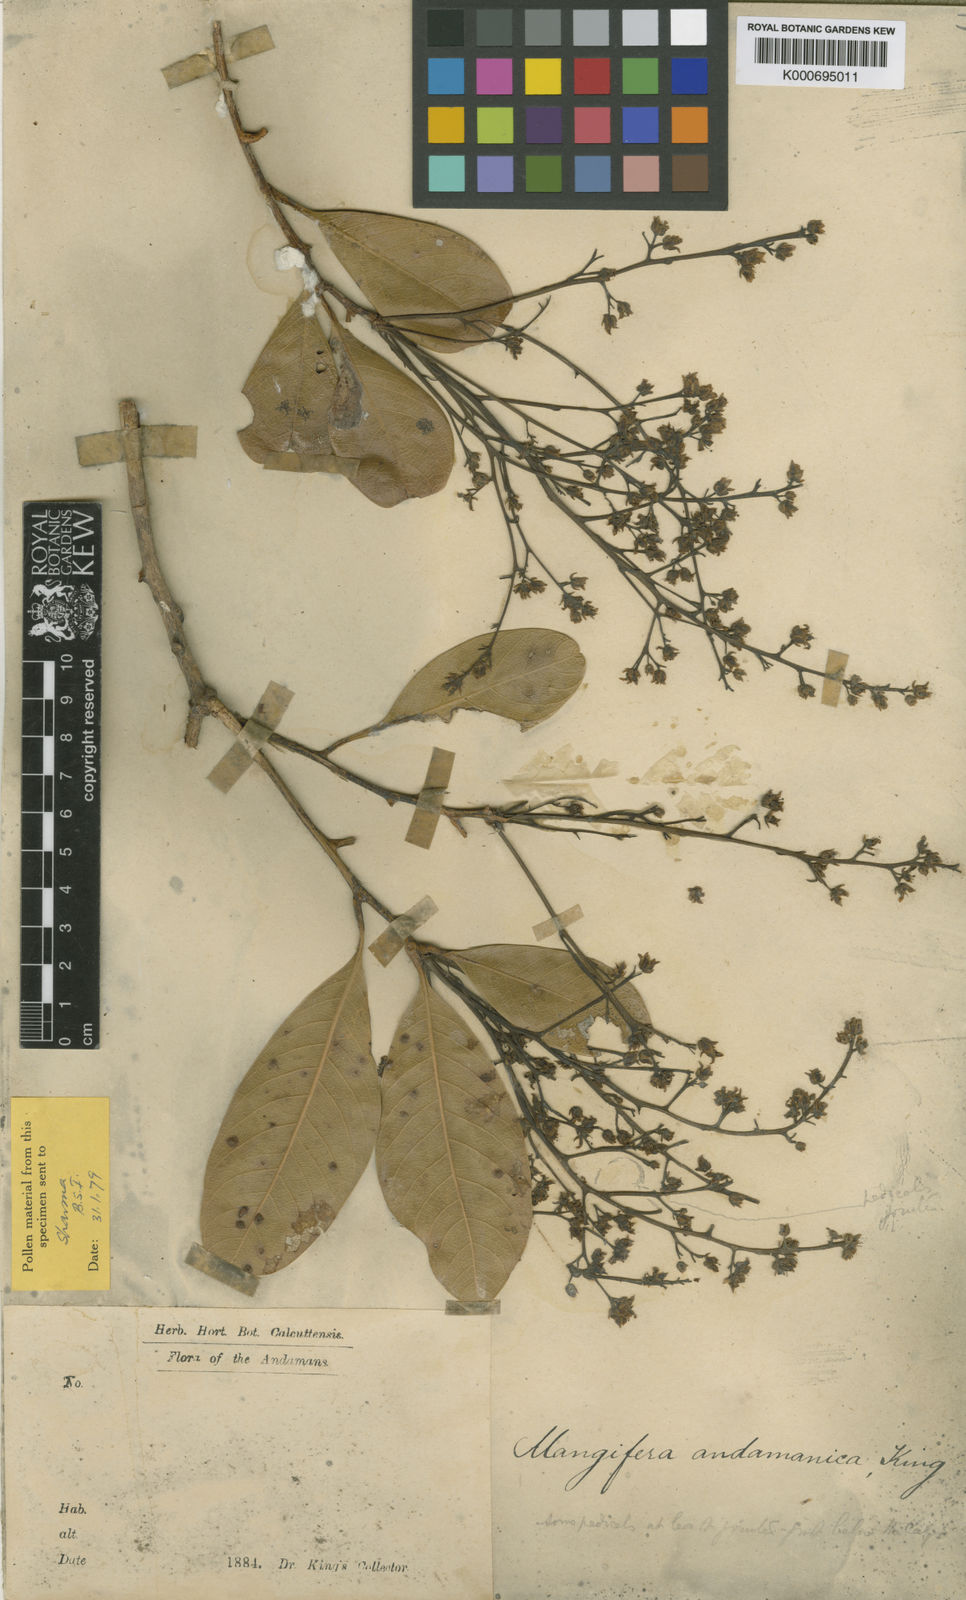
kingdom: Plantae
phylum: Tracheophyta
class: Magnoliopsida
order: Sapindales
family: Anacardiaceae
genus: Mangifera
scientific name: Mangifera andamanica
